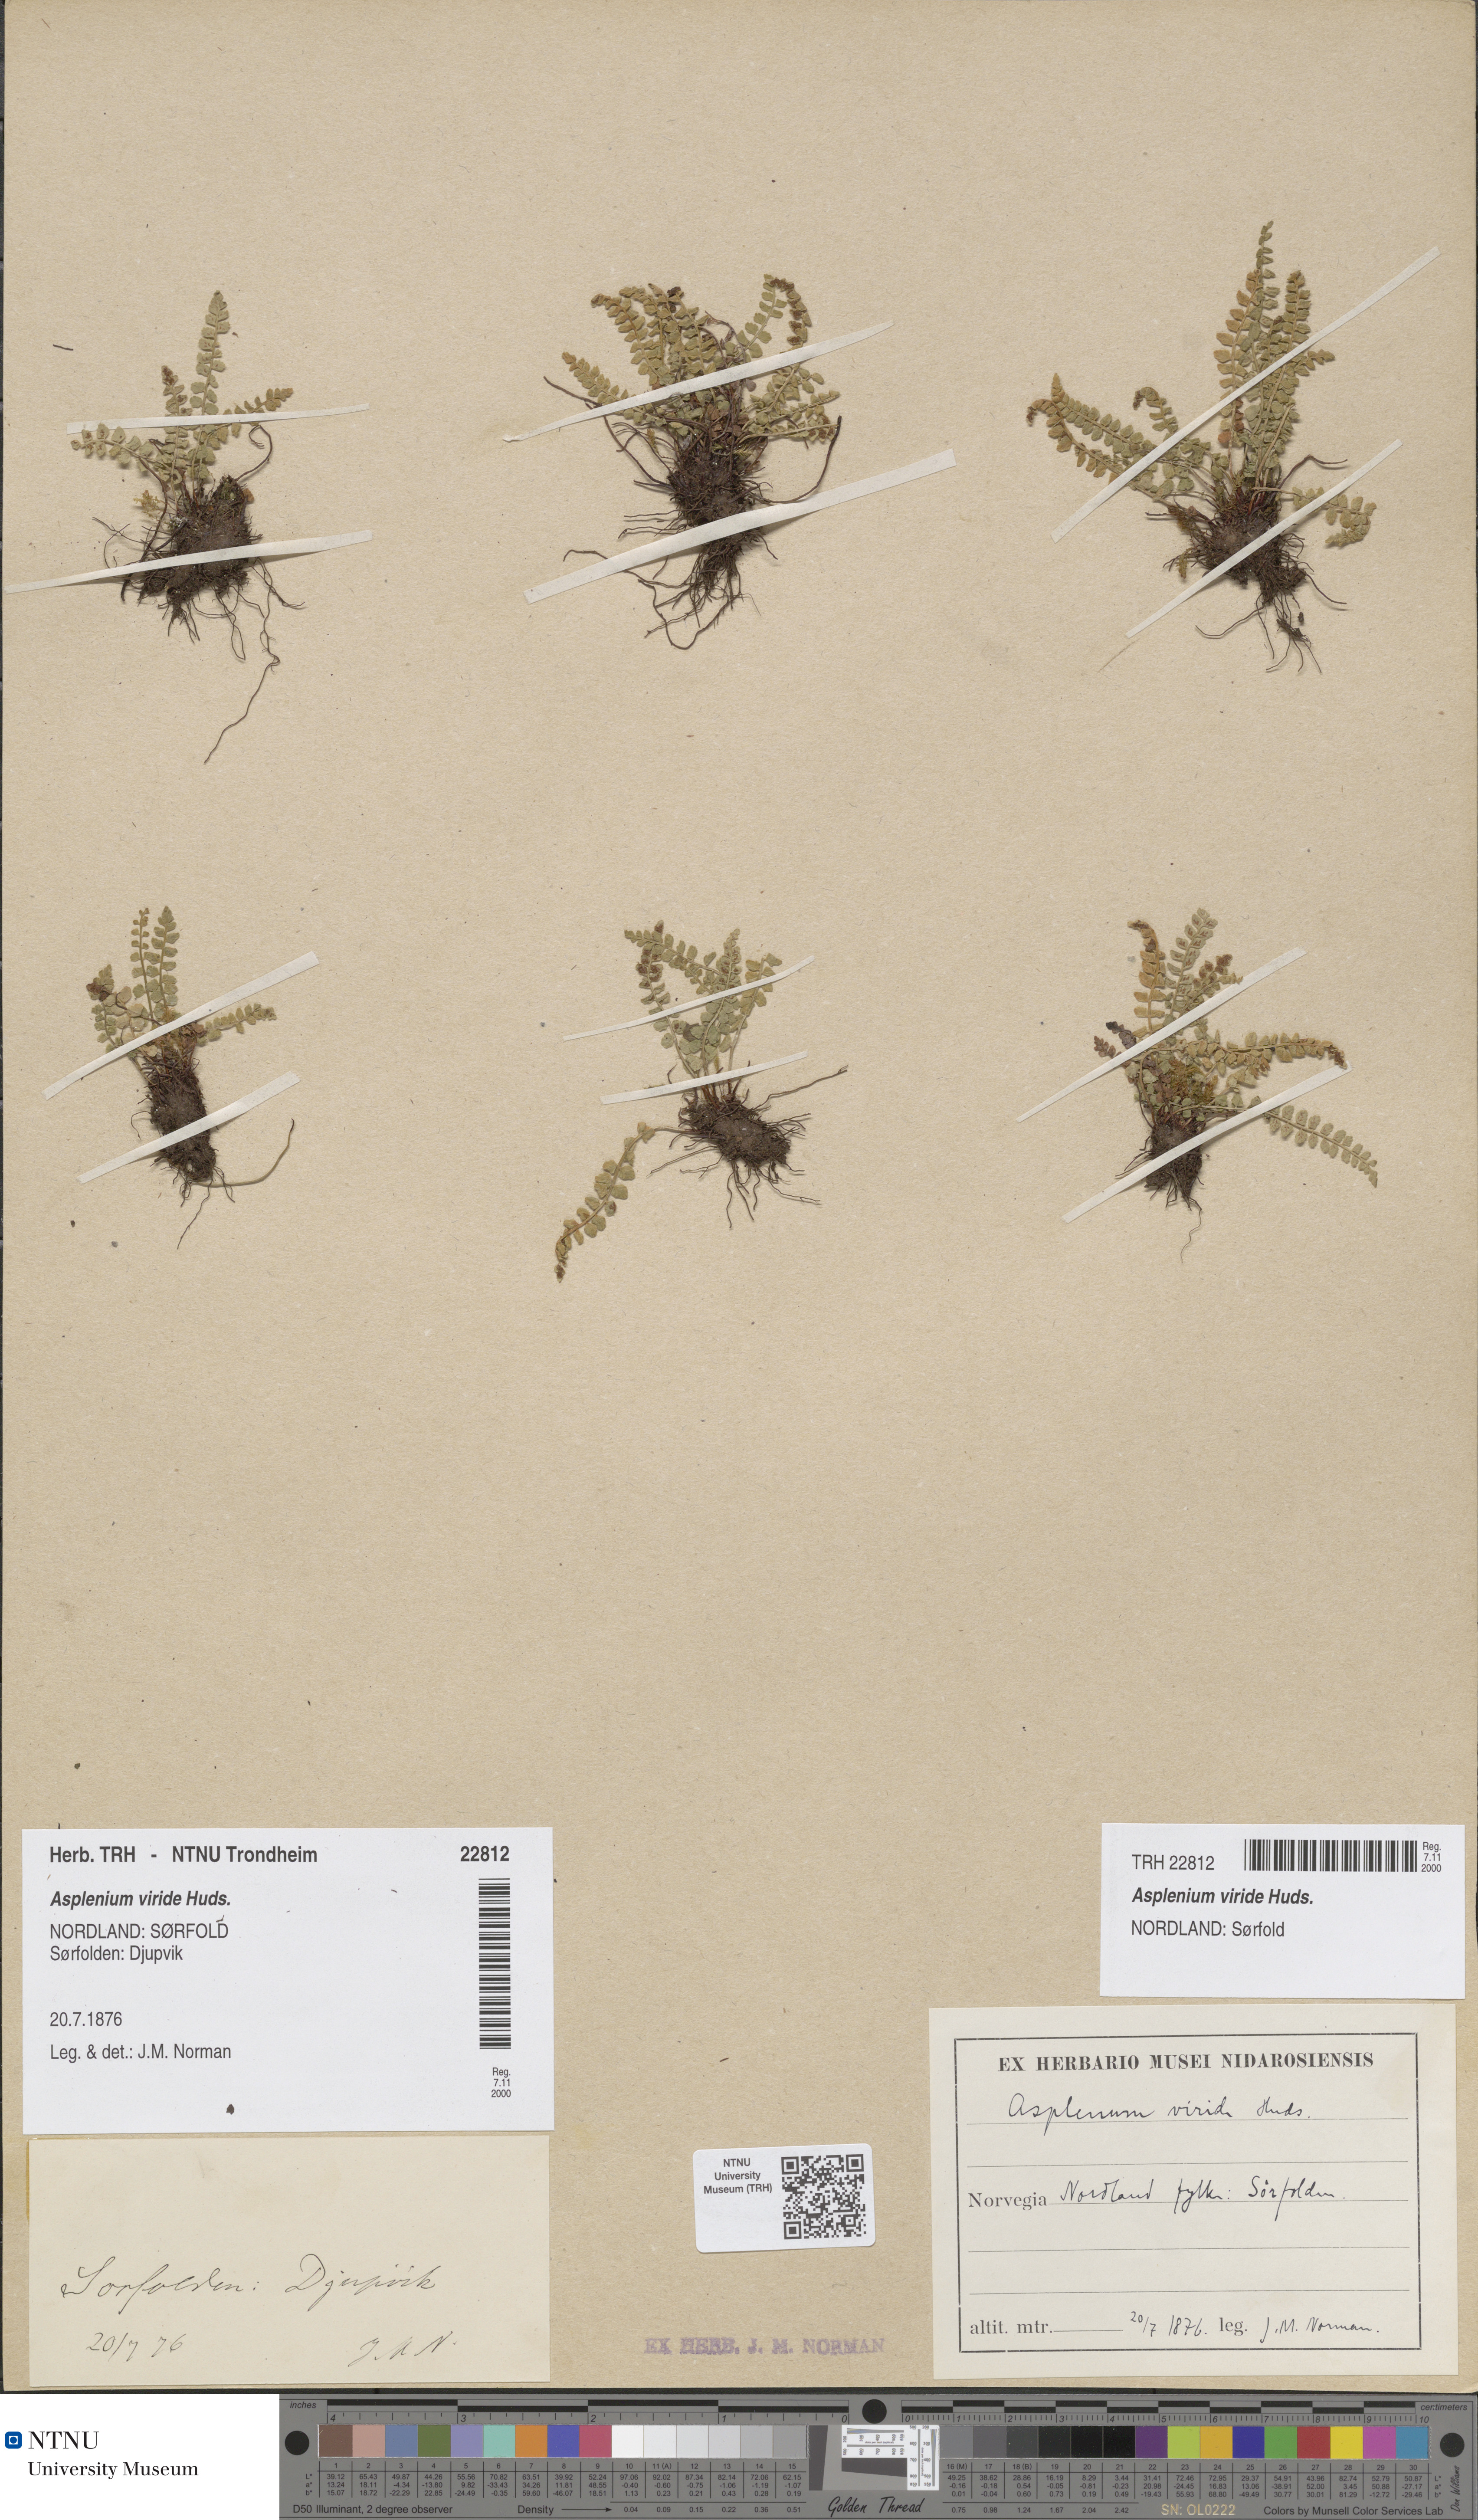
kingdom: Plantae
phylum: Tracheophyta
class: Polypodiopsida
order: Polypodiales
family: Aspleniaceae
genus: Asplenium
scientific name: Asplenium viride
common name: Green spleenwort
